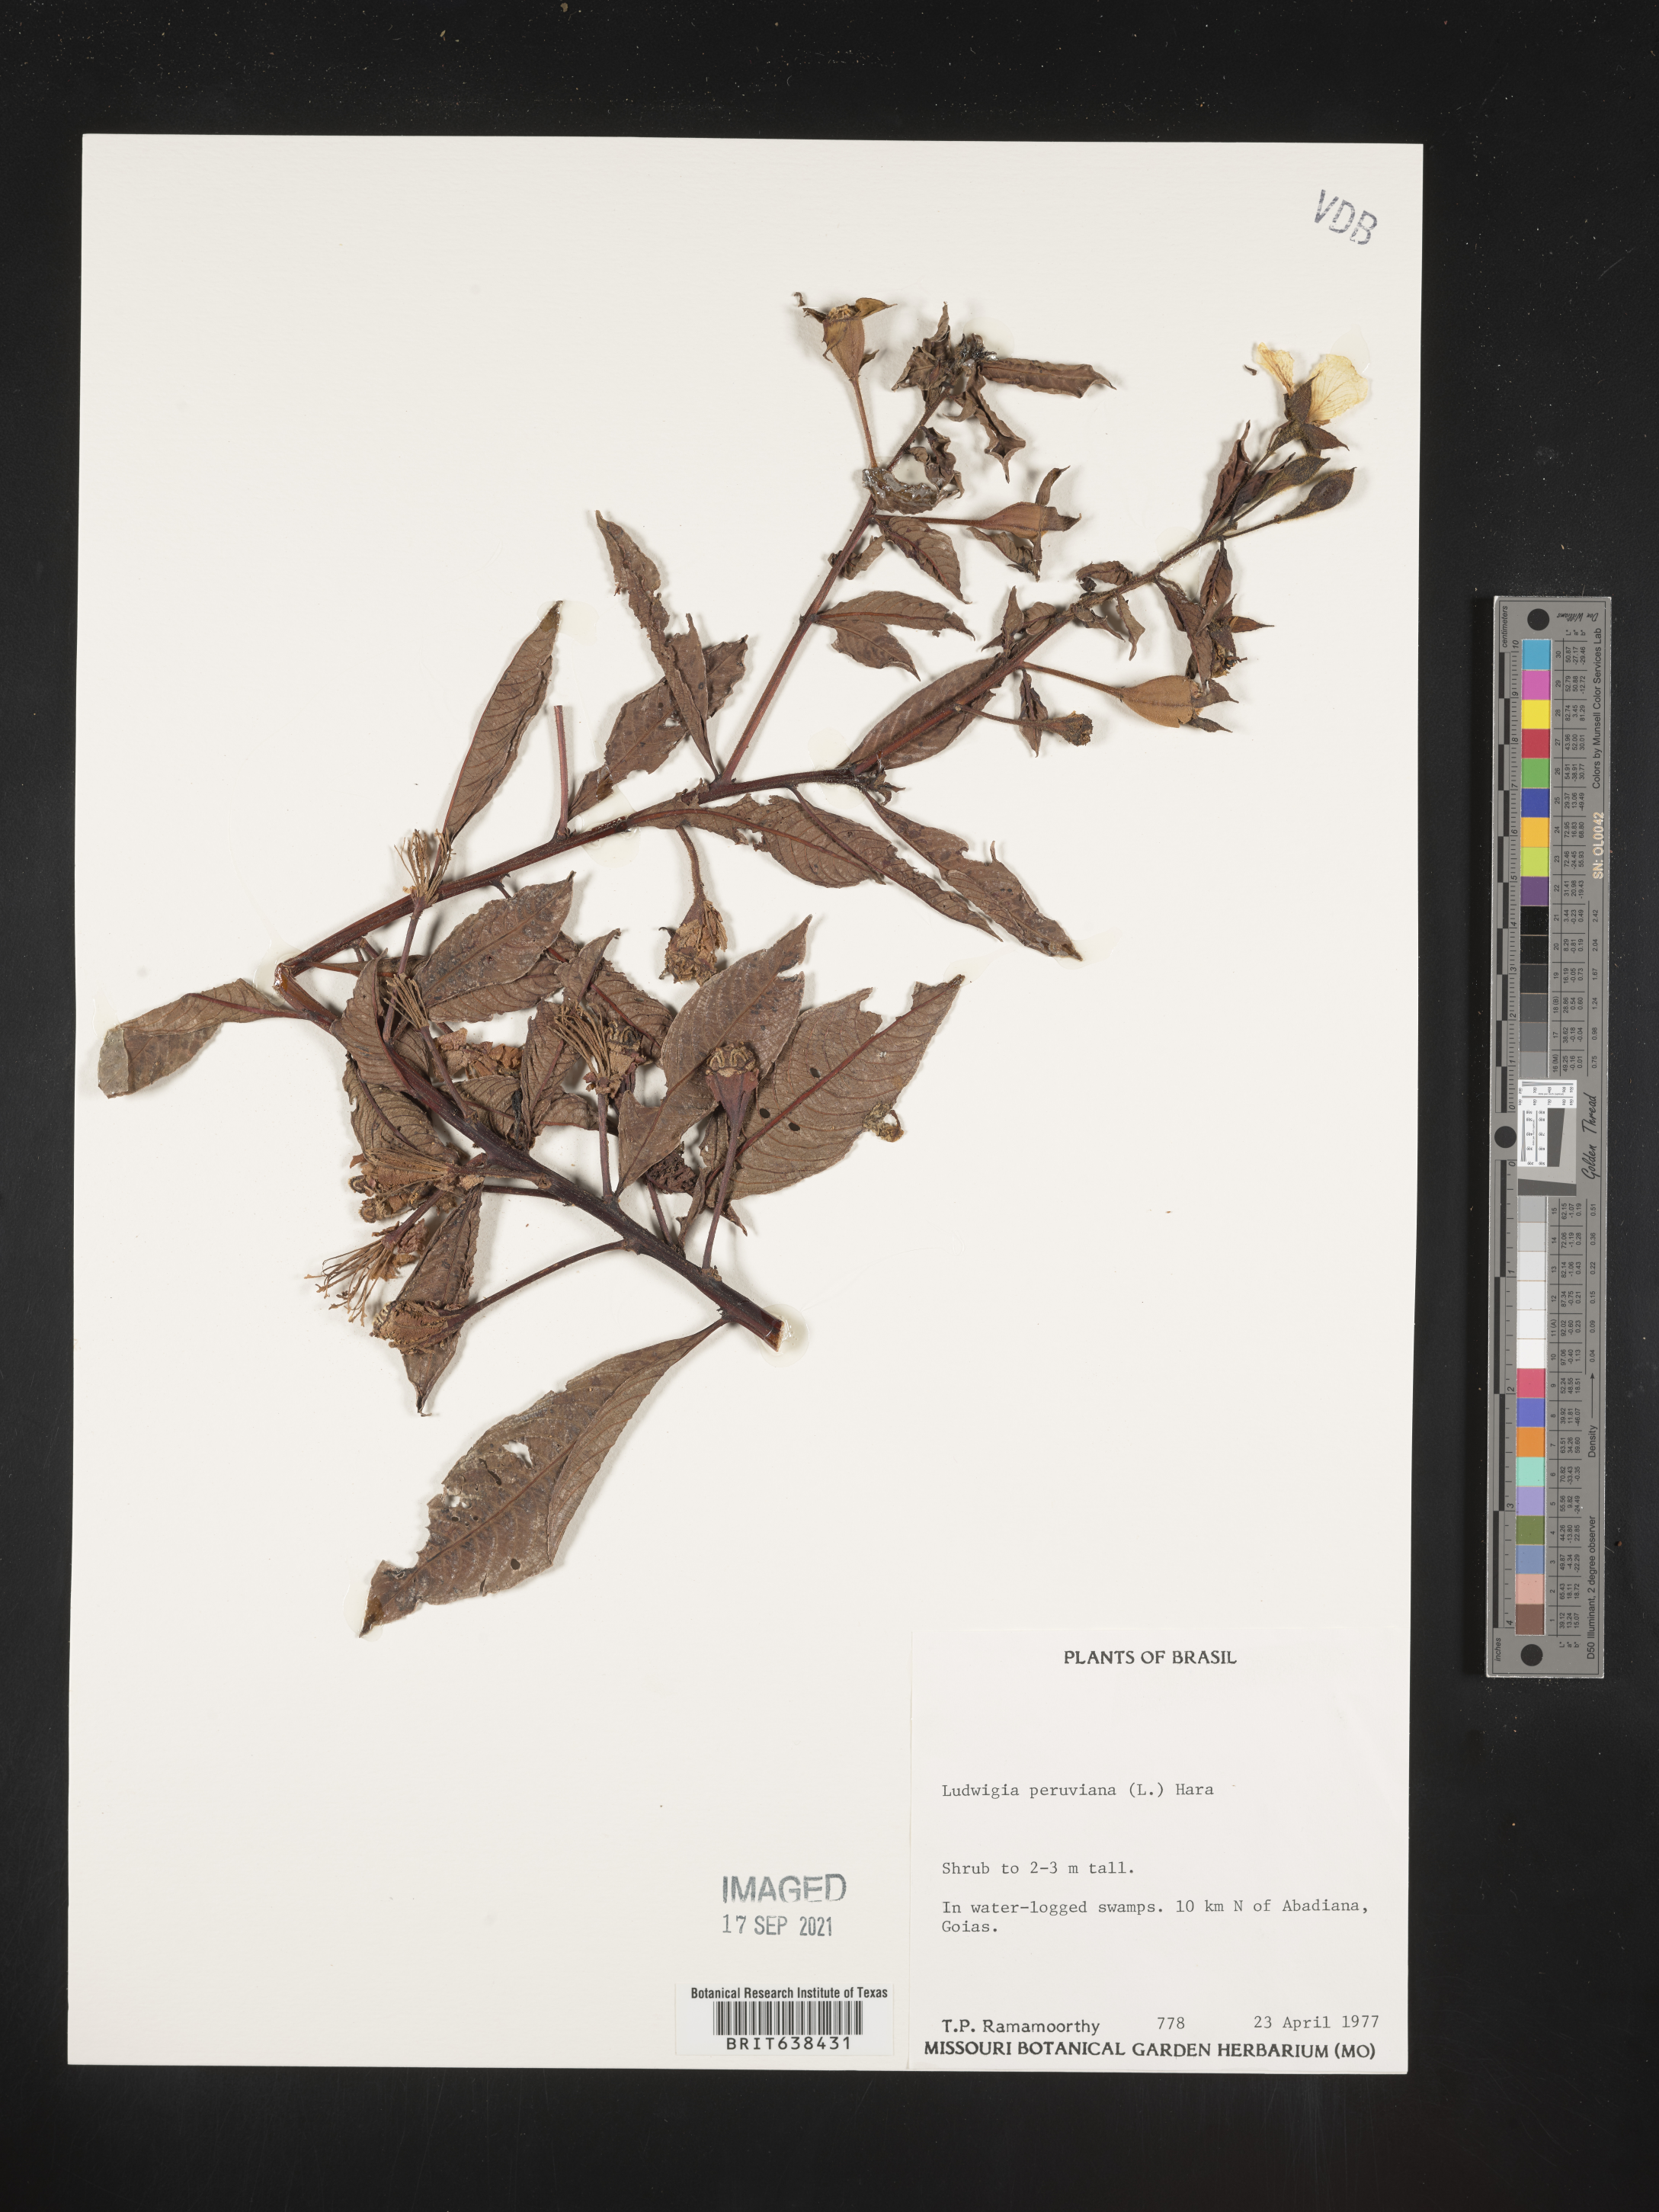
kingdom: Plantae
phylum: Tracheophyta
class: Magnoliopsida
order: Myrtales
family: Onagraceae
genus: Ludwigia
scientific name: Ludwigia
